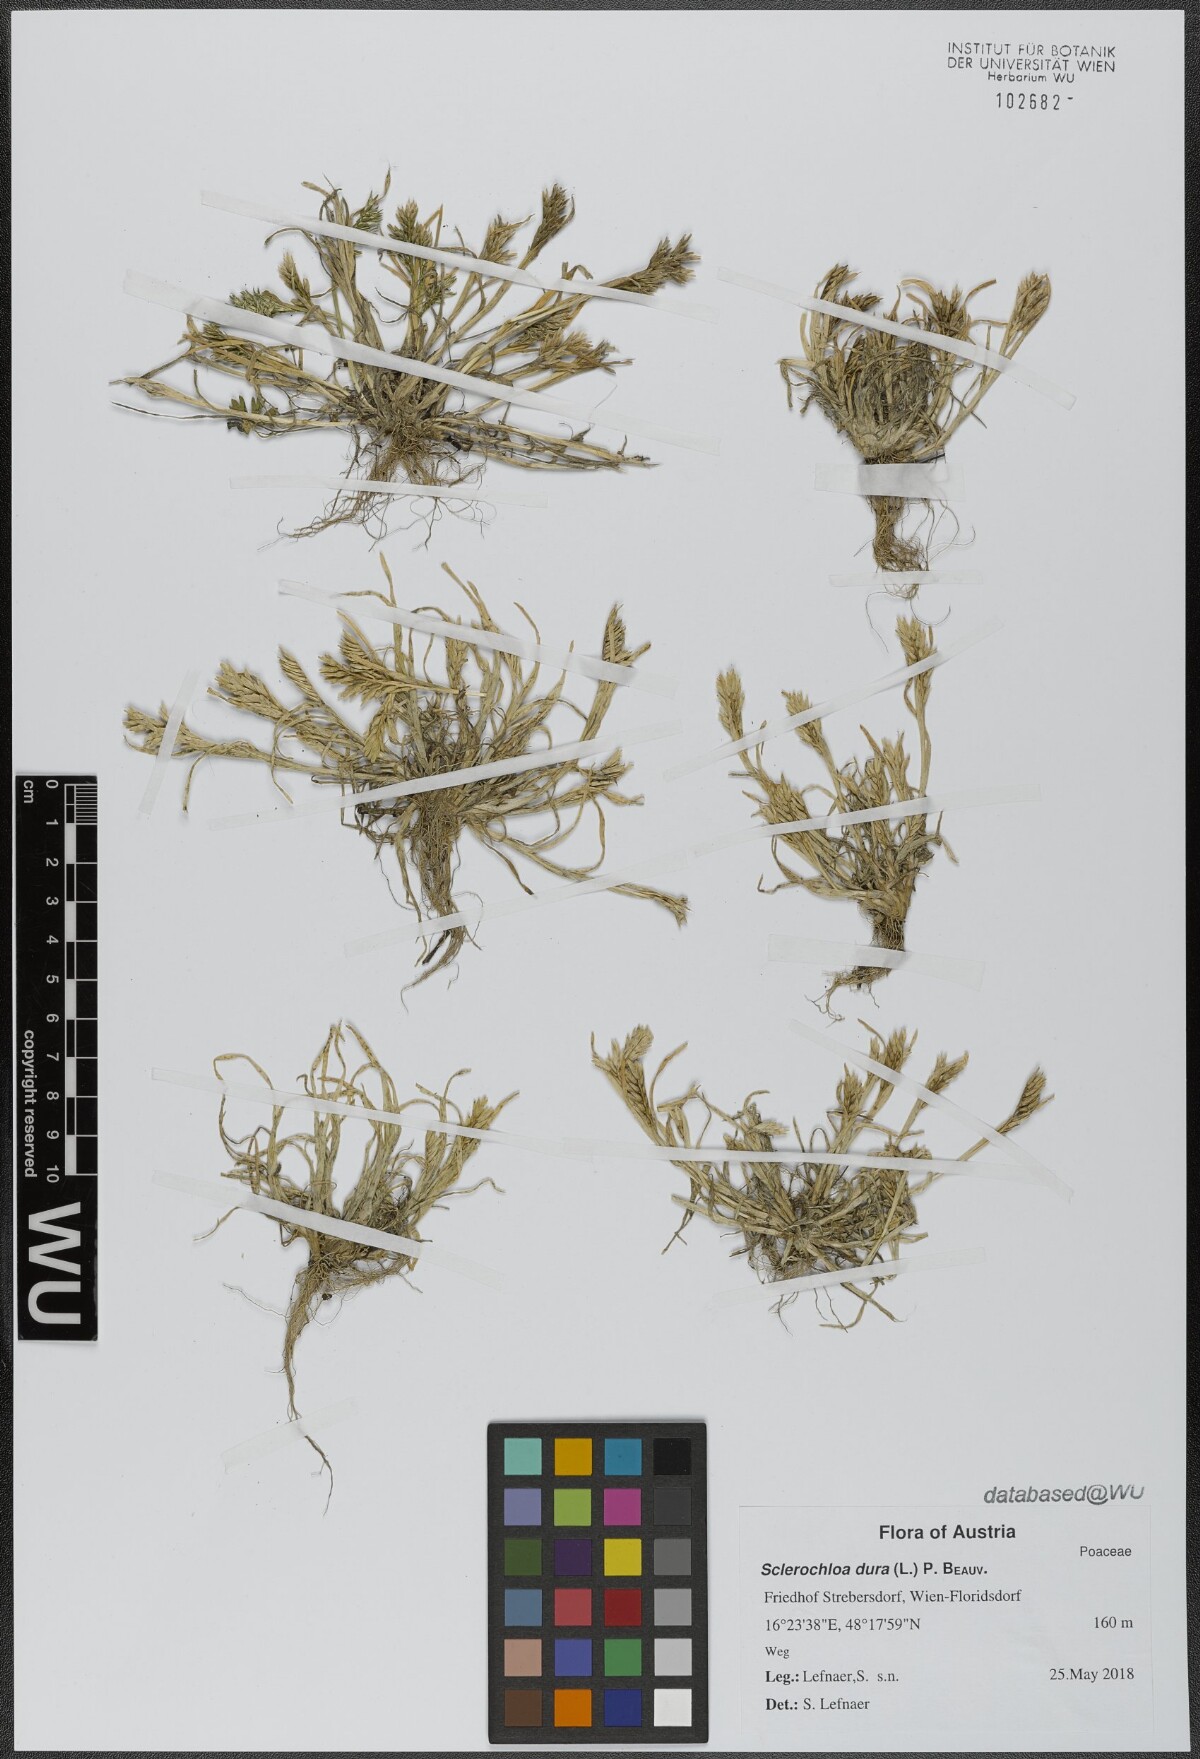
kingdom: Plantae
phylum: Tracheophyta
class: Liliopsida
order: Poales
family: Poaceae
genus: Sclerochloa
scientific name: Sclerochloa dura
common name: Common hardgrass
